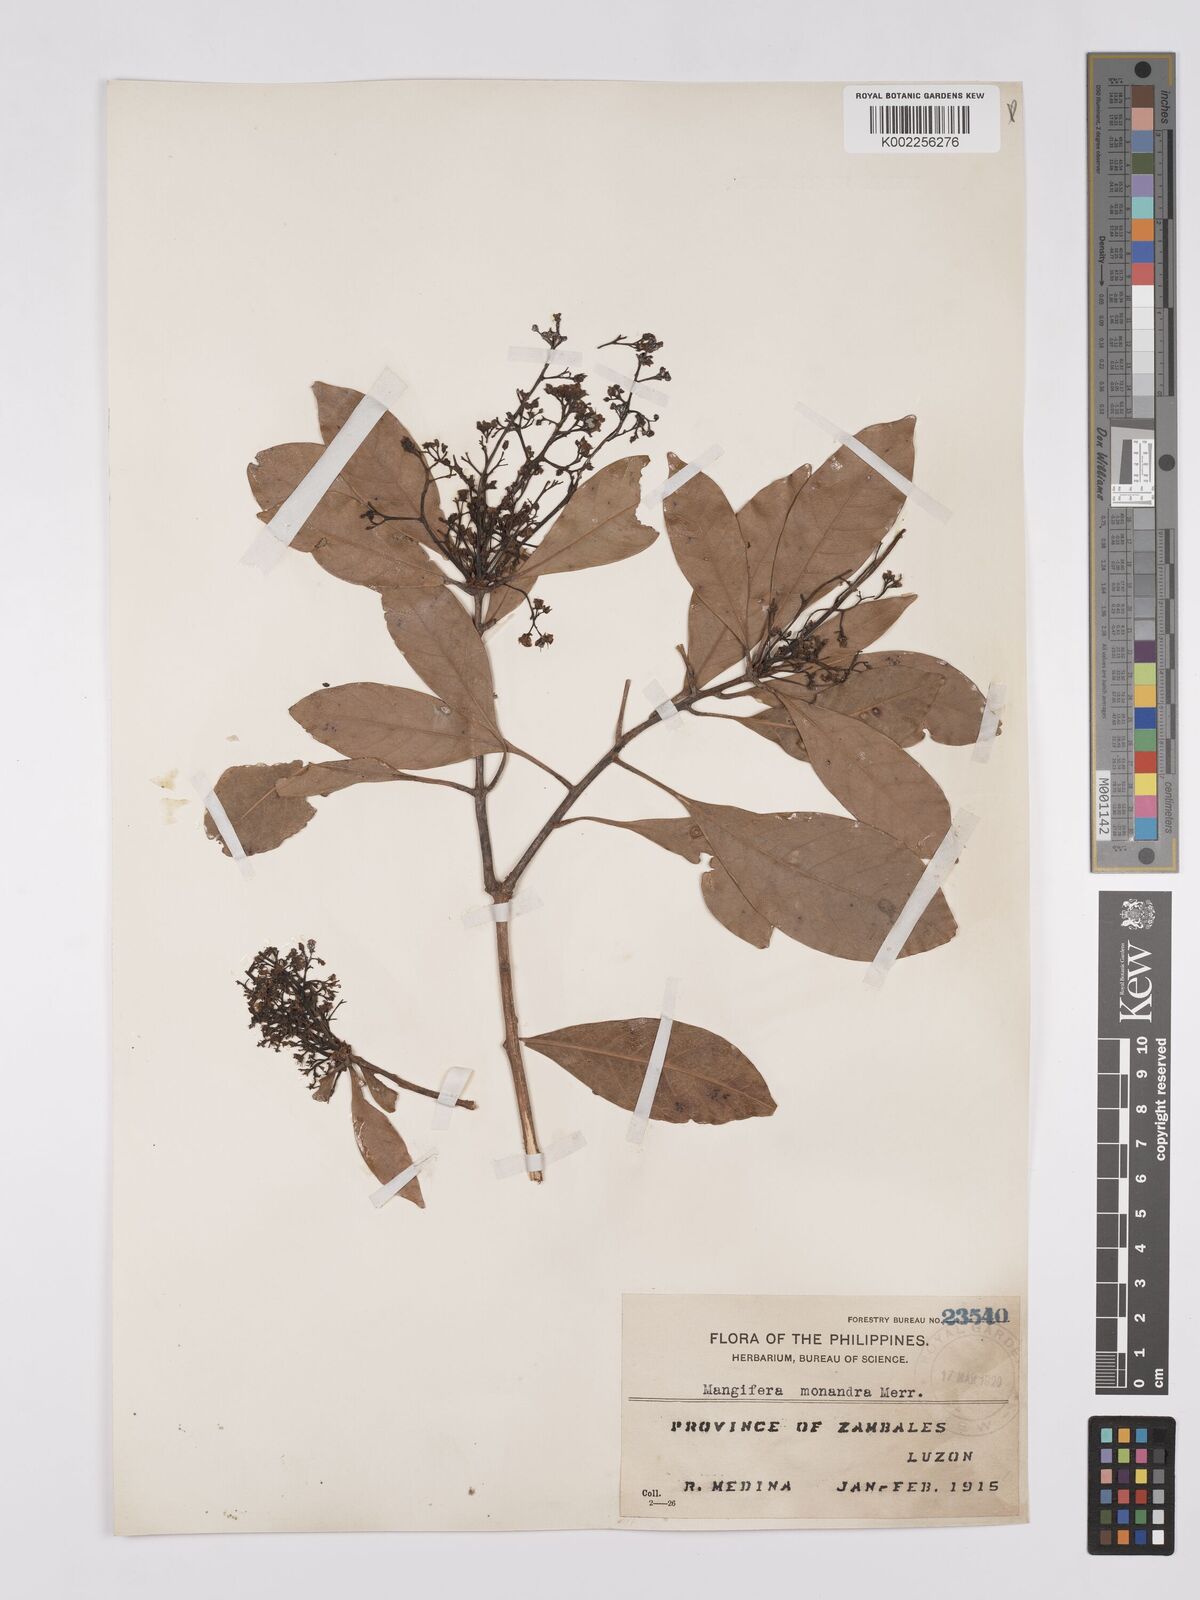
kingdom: Plantae
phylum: Tracheophyta
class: Magnoliopsida
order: Sapindales
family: Anacardiaceae
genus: Mangifera
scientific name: Mangifera monandra
